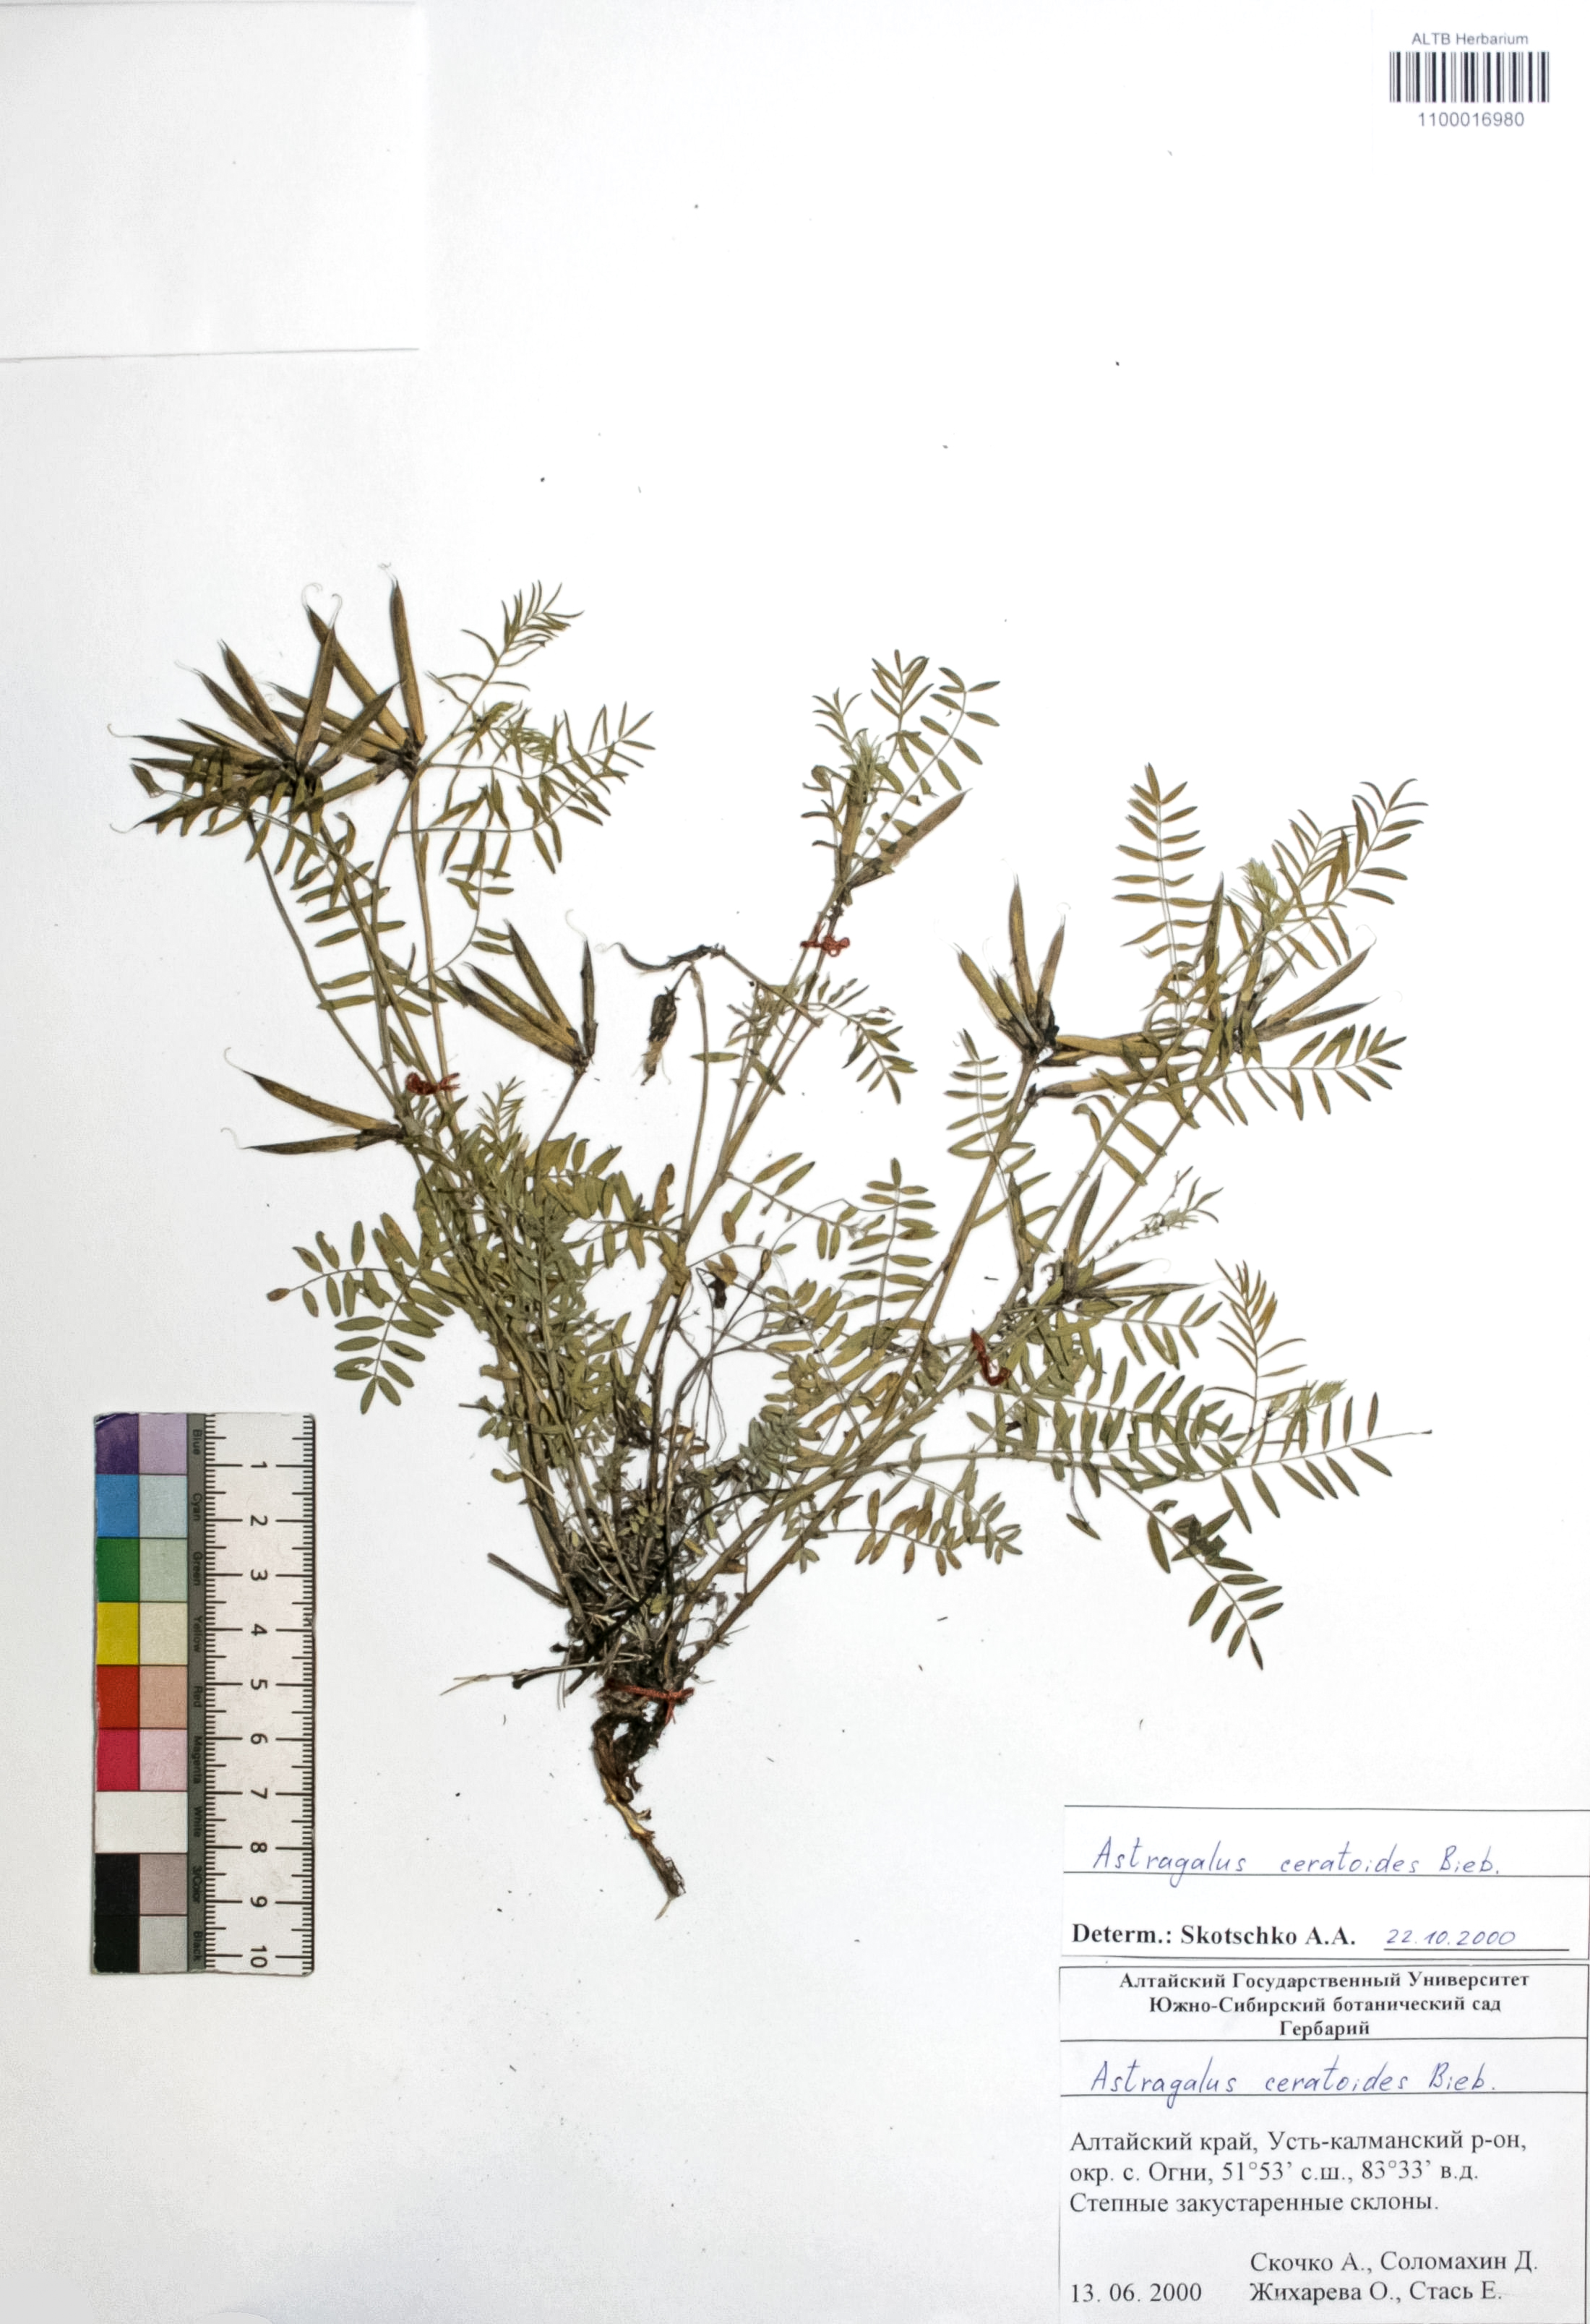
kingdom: Plantae
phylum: Tracheophyta
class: Magnoliopsida
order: Fabales
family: Fabaceae
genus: Astragalus
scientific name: Astragalus ceratoides
